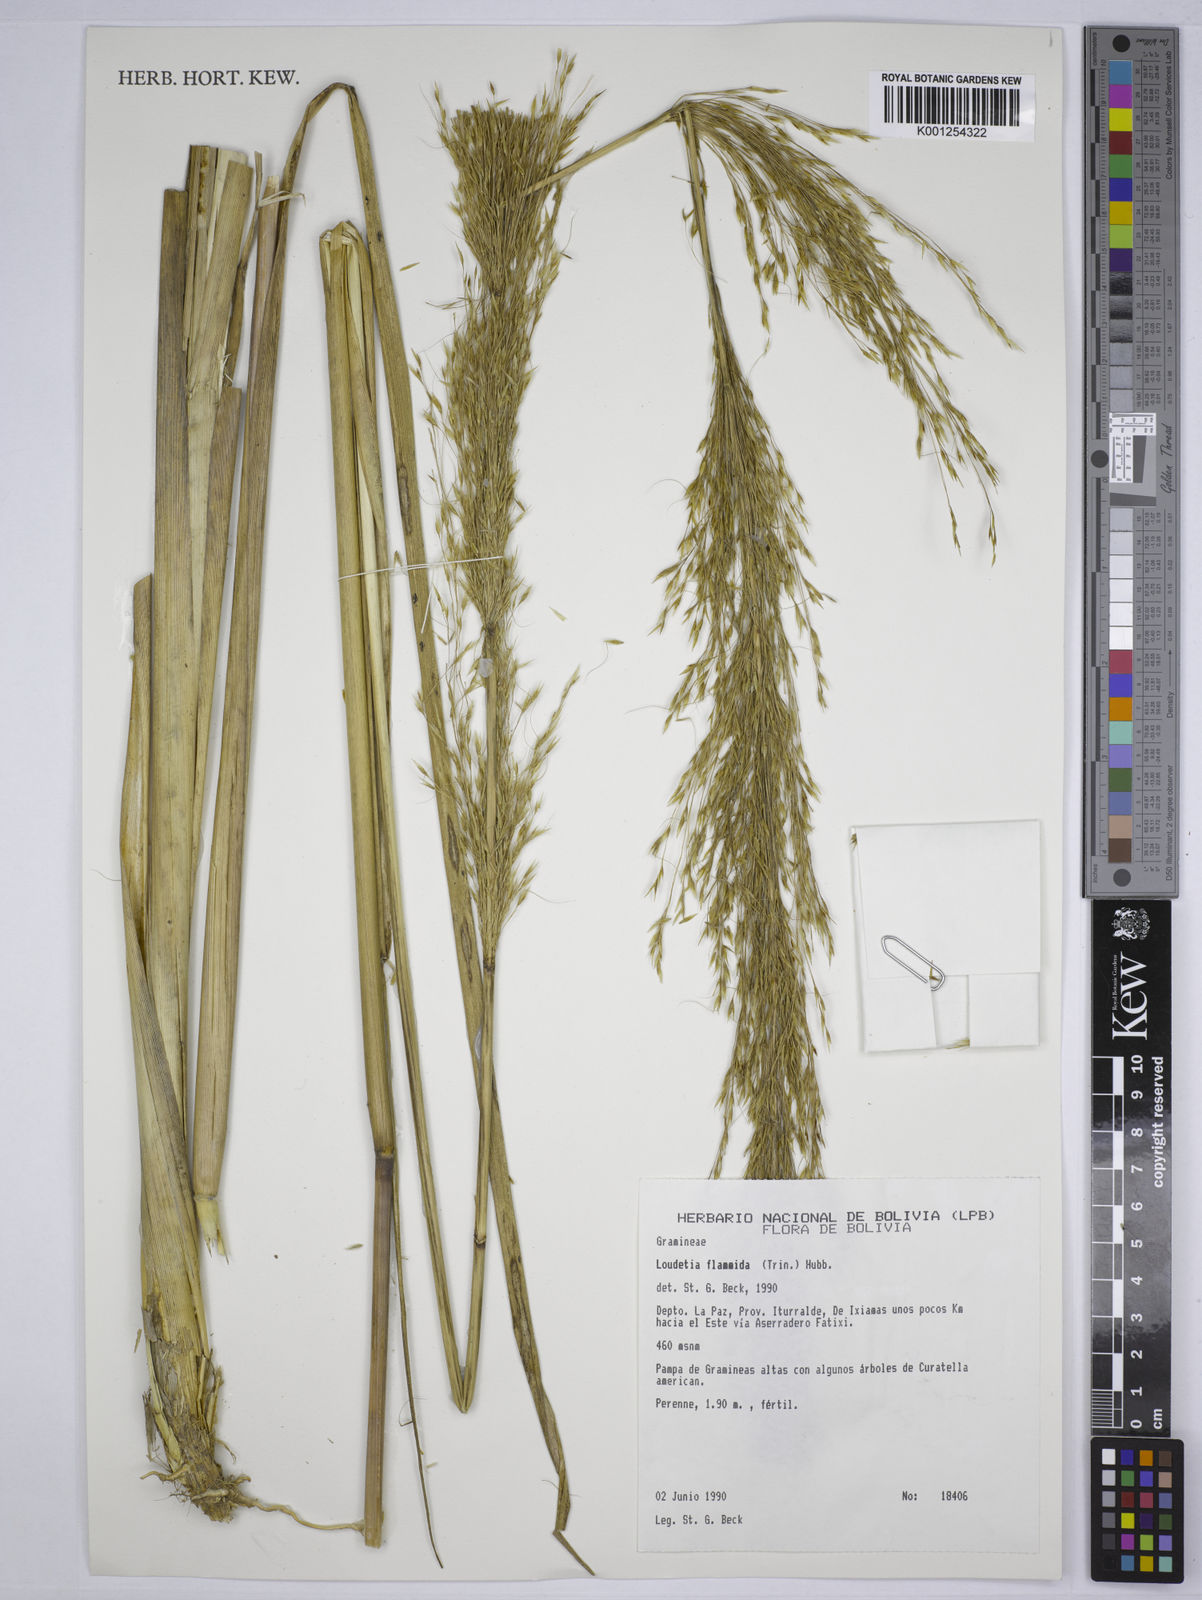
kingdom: Plantae
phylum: Tracheophyta
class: Liliopsida
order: Poales
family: Poaceae
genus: Loudetia
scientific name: Loudetia flammida
